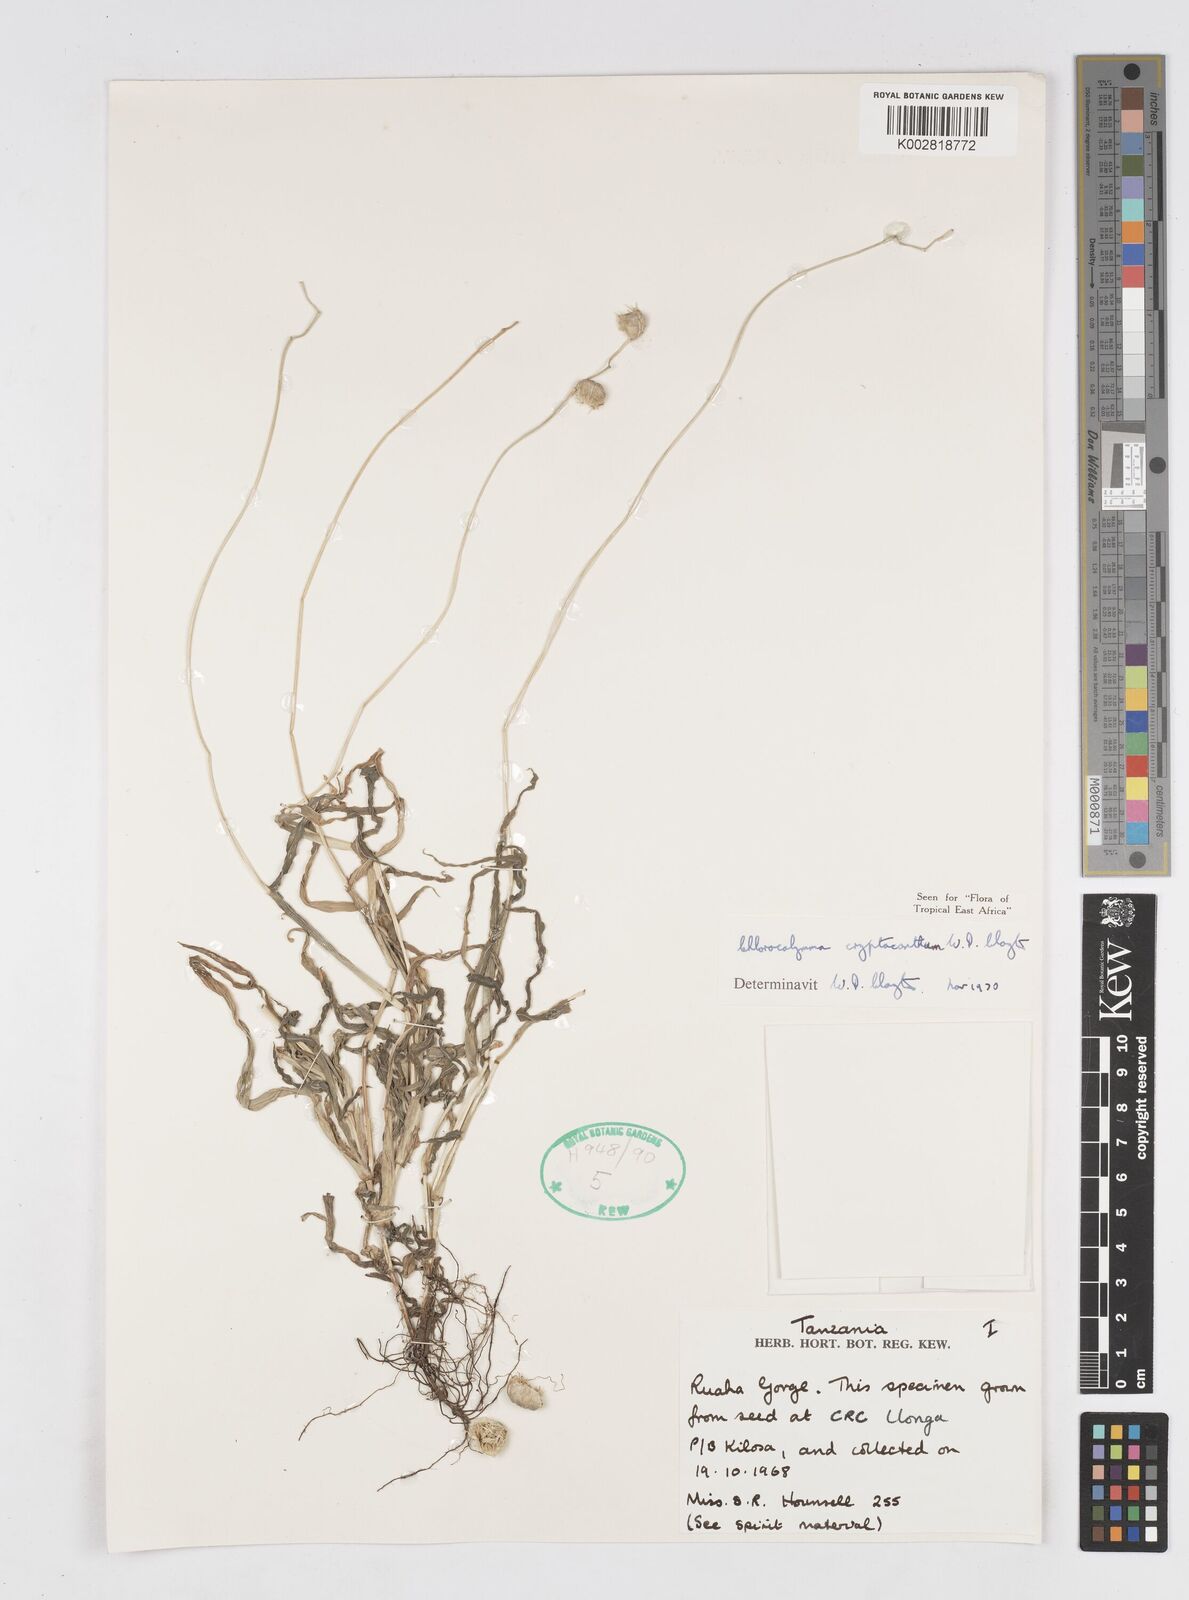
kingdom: Plantae
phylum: Tracheophyta
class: Liliopsida
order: Poales
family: Poaceae
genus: Chlorocalymma
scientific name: Chlorocalymma cryptacanthum
